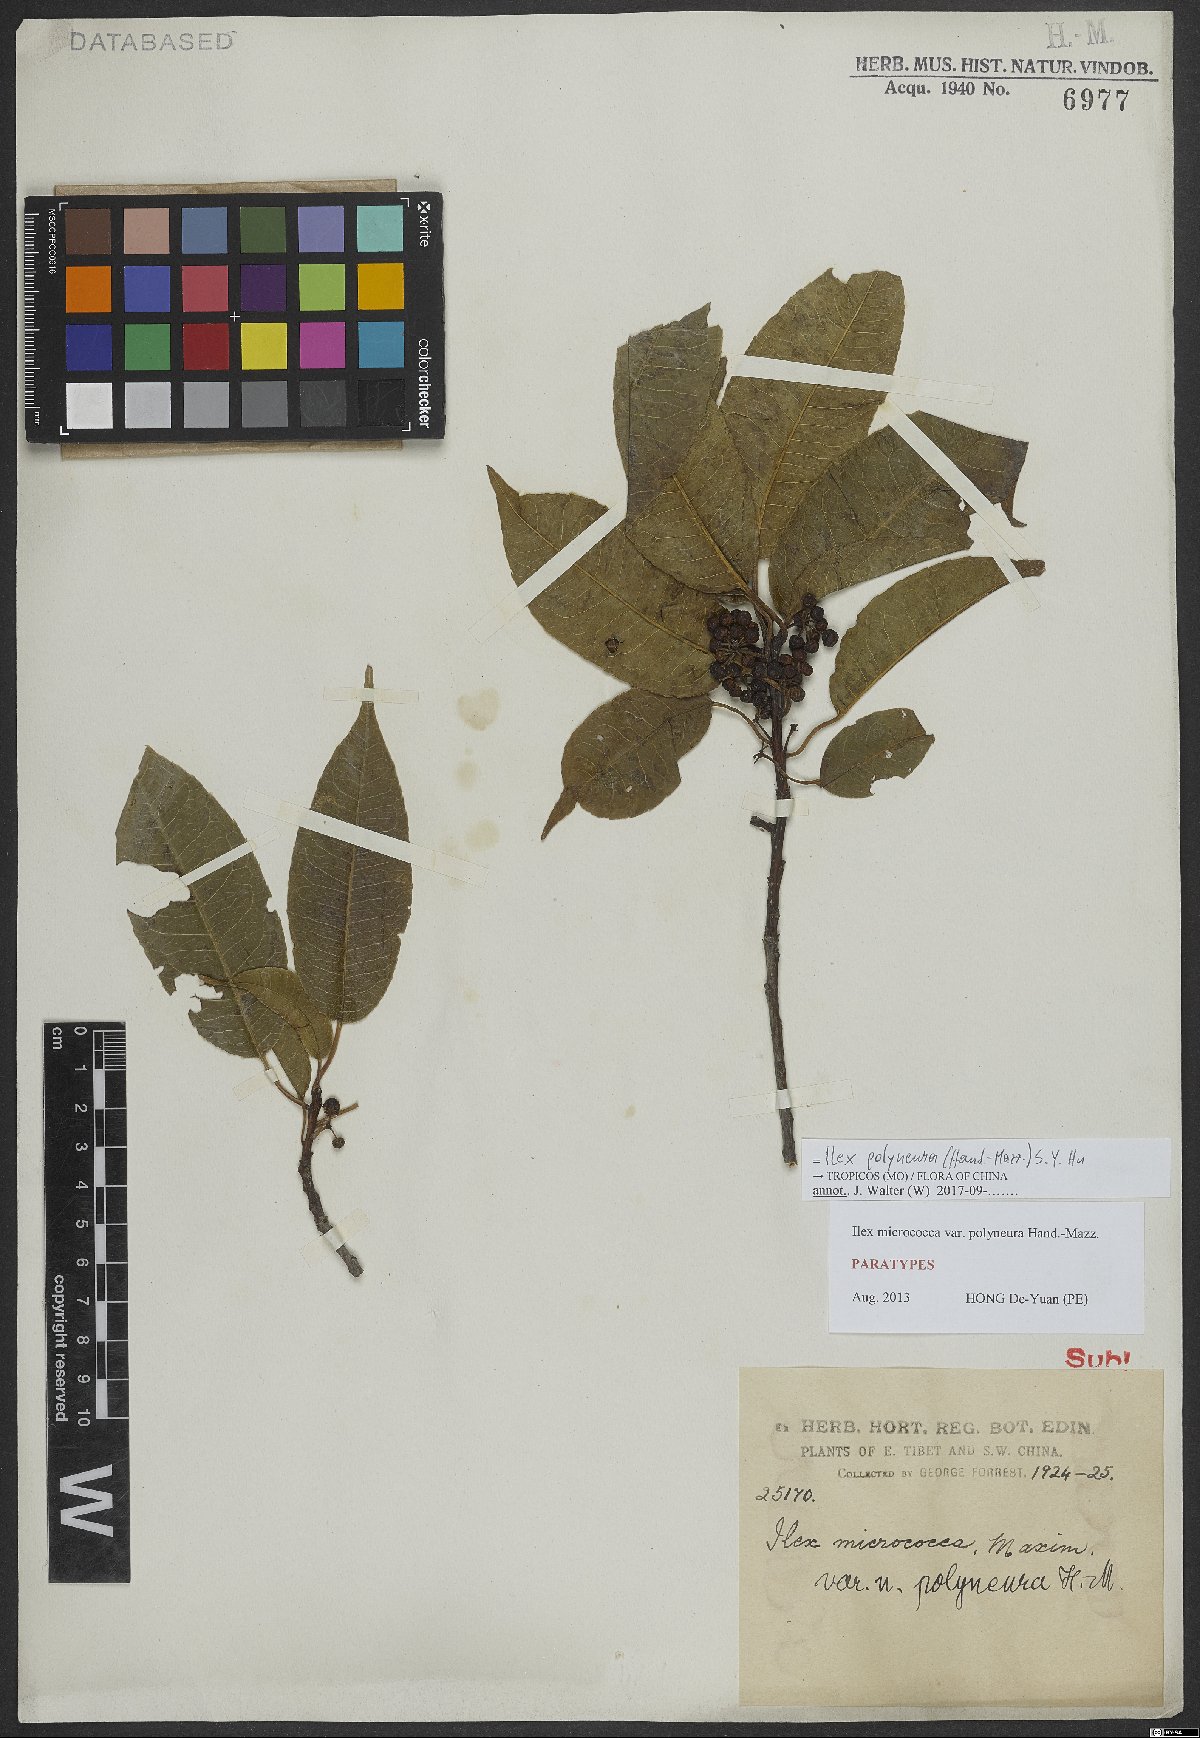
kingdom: Plantae
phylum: Tracheophyta
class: Magnoliopsida
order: Aquifoliales
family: Aquifoliaceae
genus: Ilex
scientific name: Ilex micrococca
